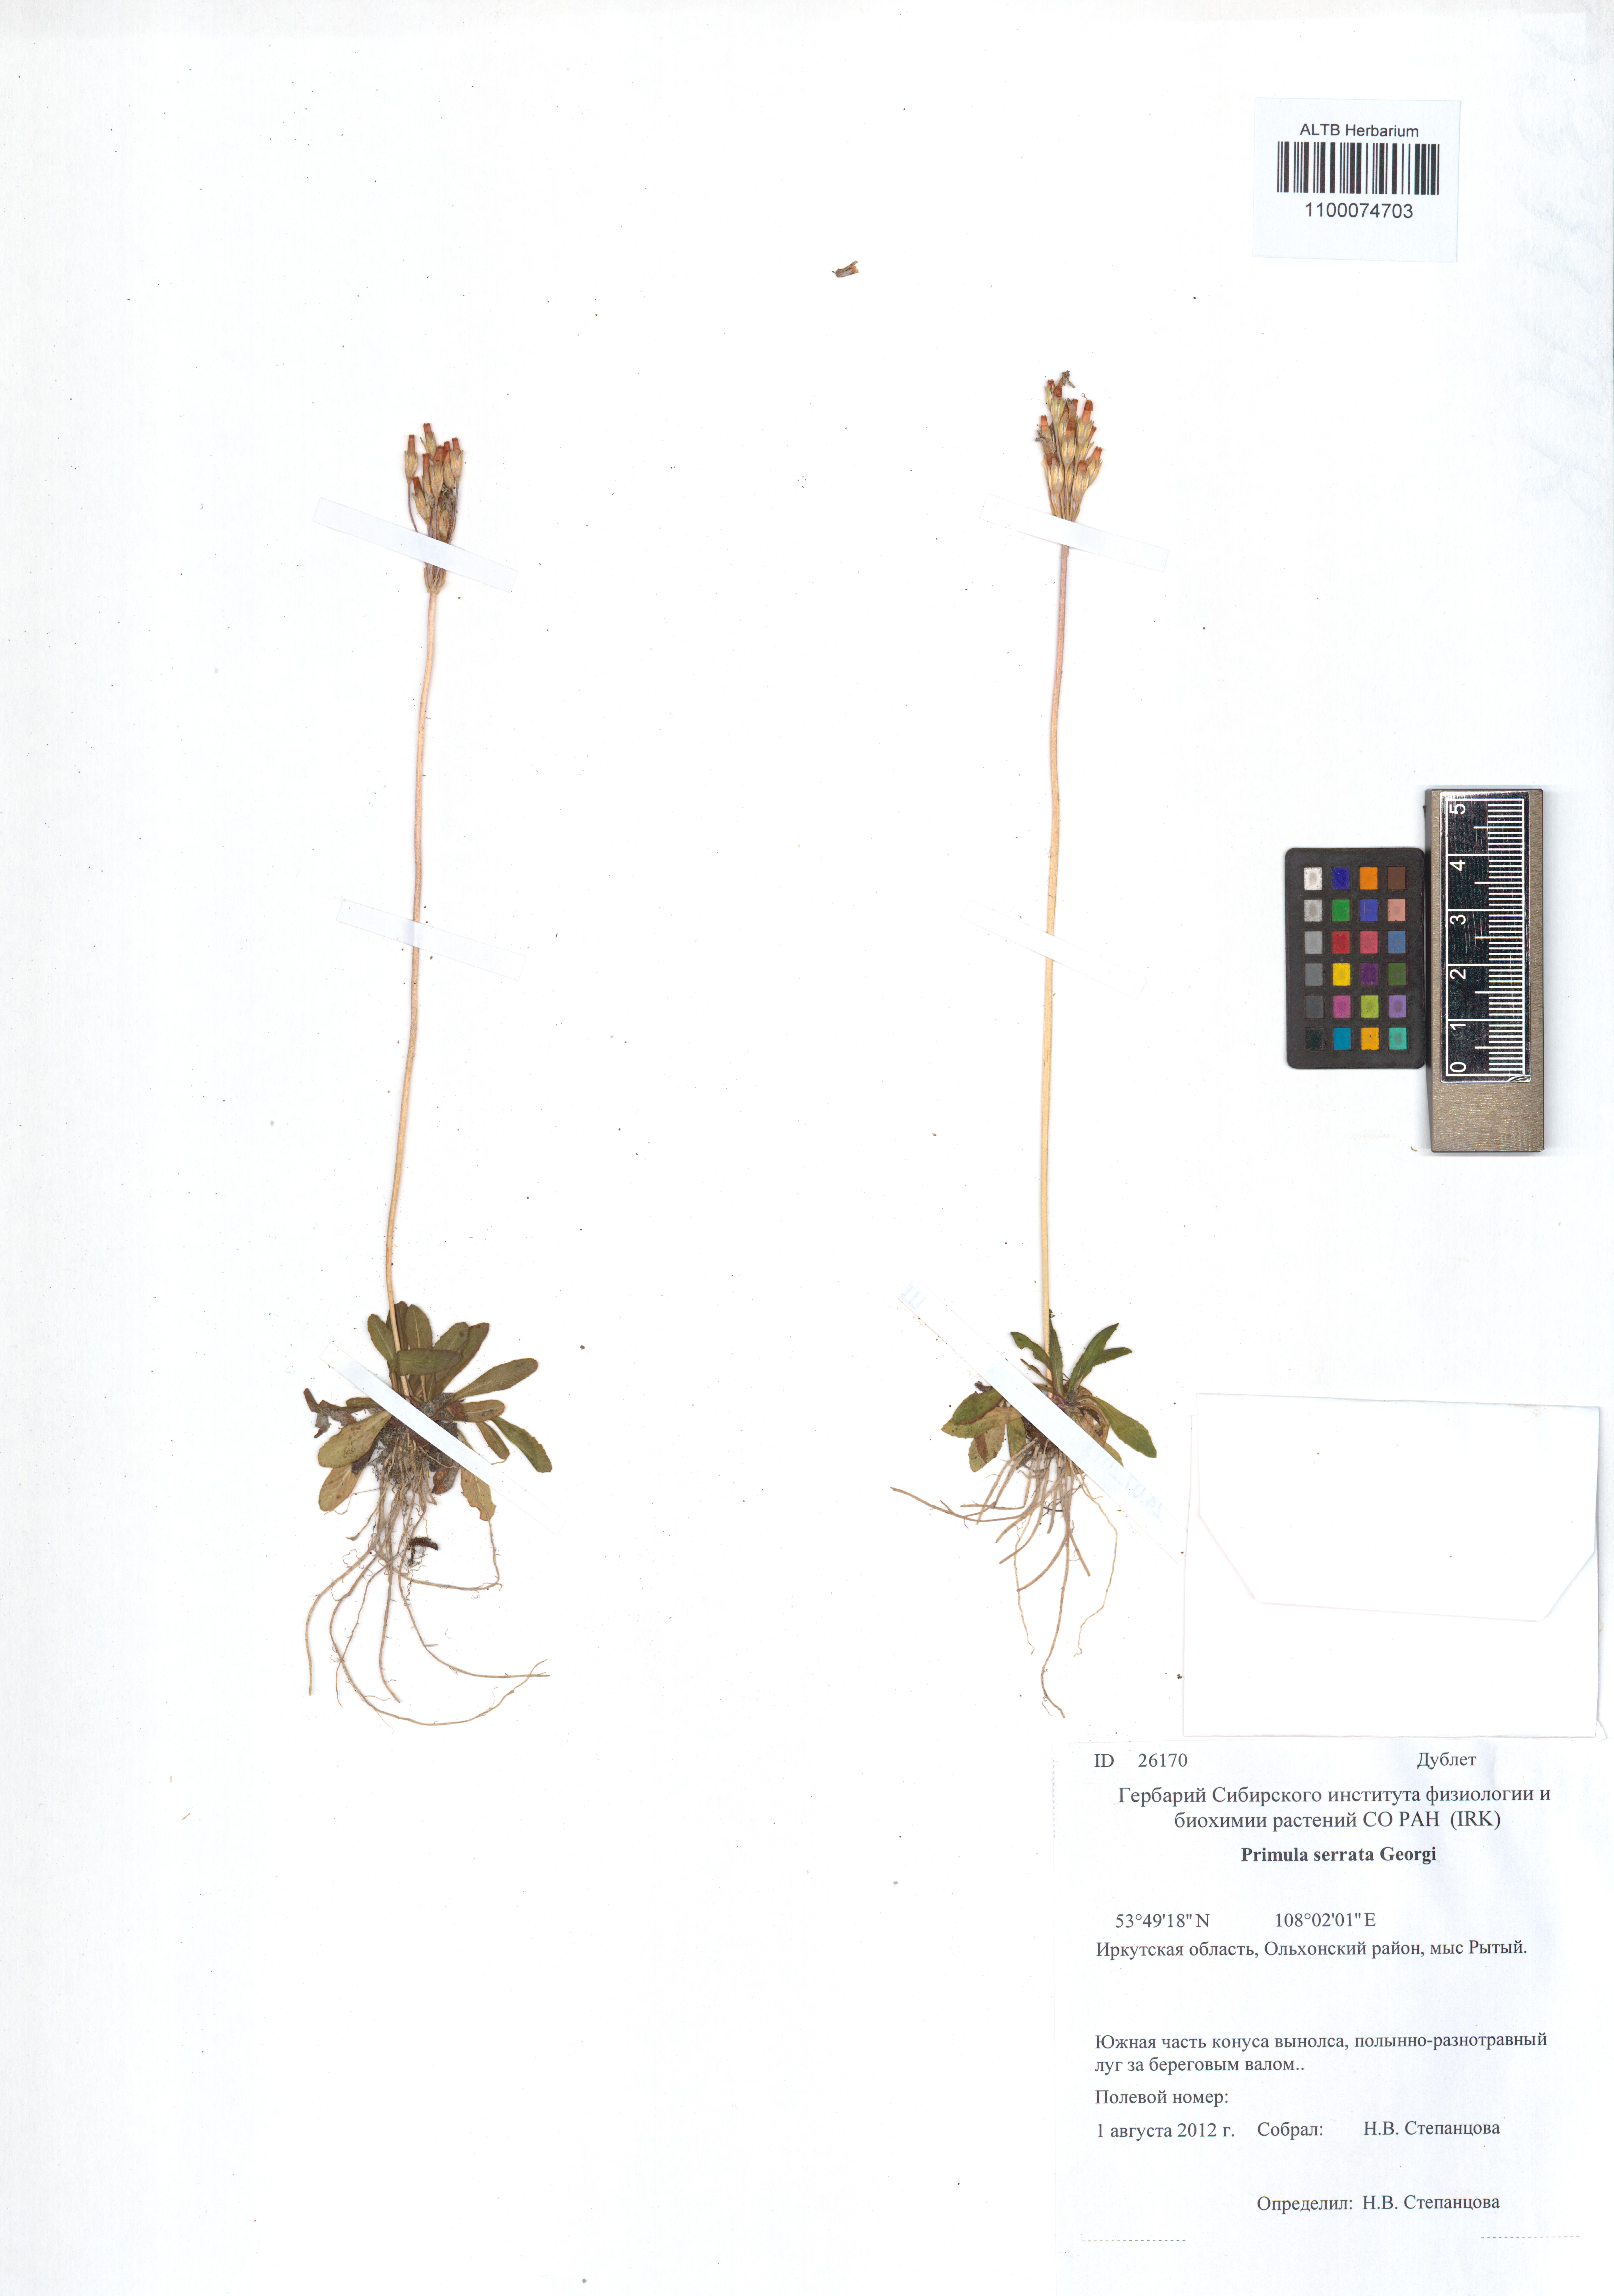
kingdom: Plantae
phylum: Tracheophyta
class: Magnoliopsida
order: Ericales
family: Primulaceae
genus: Primula
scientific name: Primula serrata
